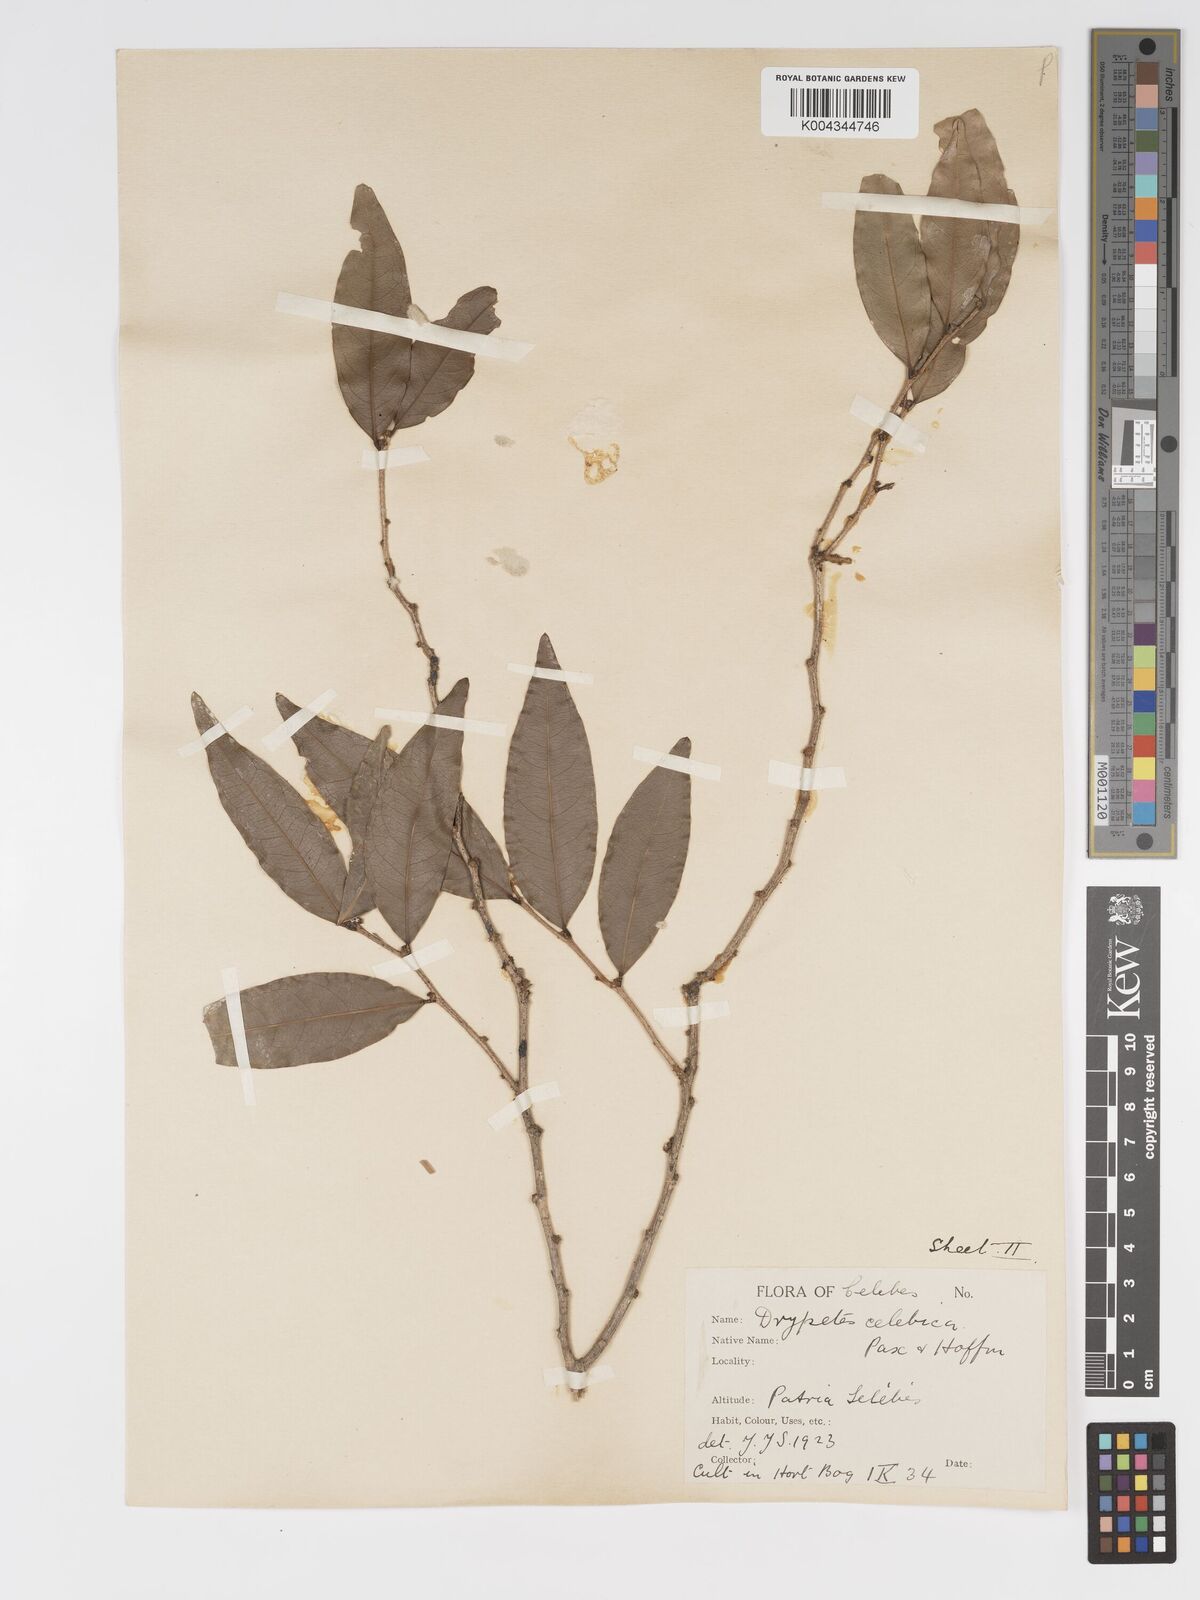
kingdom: Plantae
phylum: Tracheophyta
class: Magnoliopsida
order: Malpighiales
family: Putranjivaceae
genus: Drypetes
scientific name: Drypetes celebica
